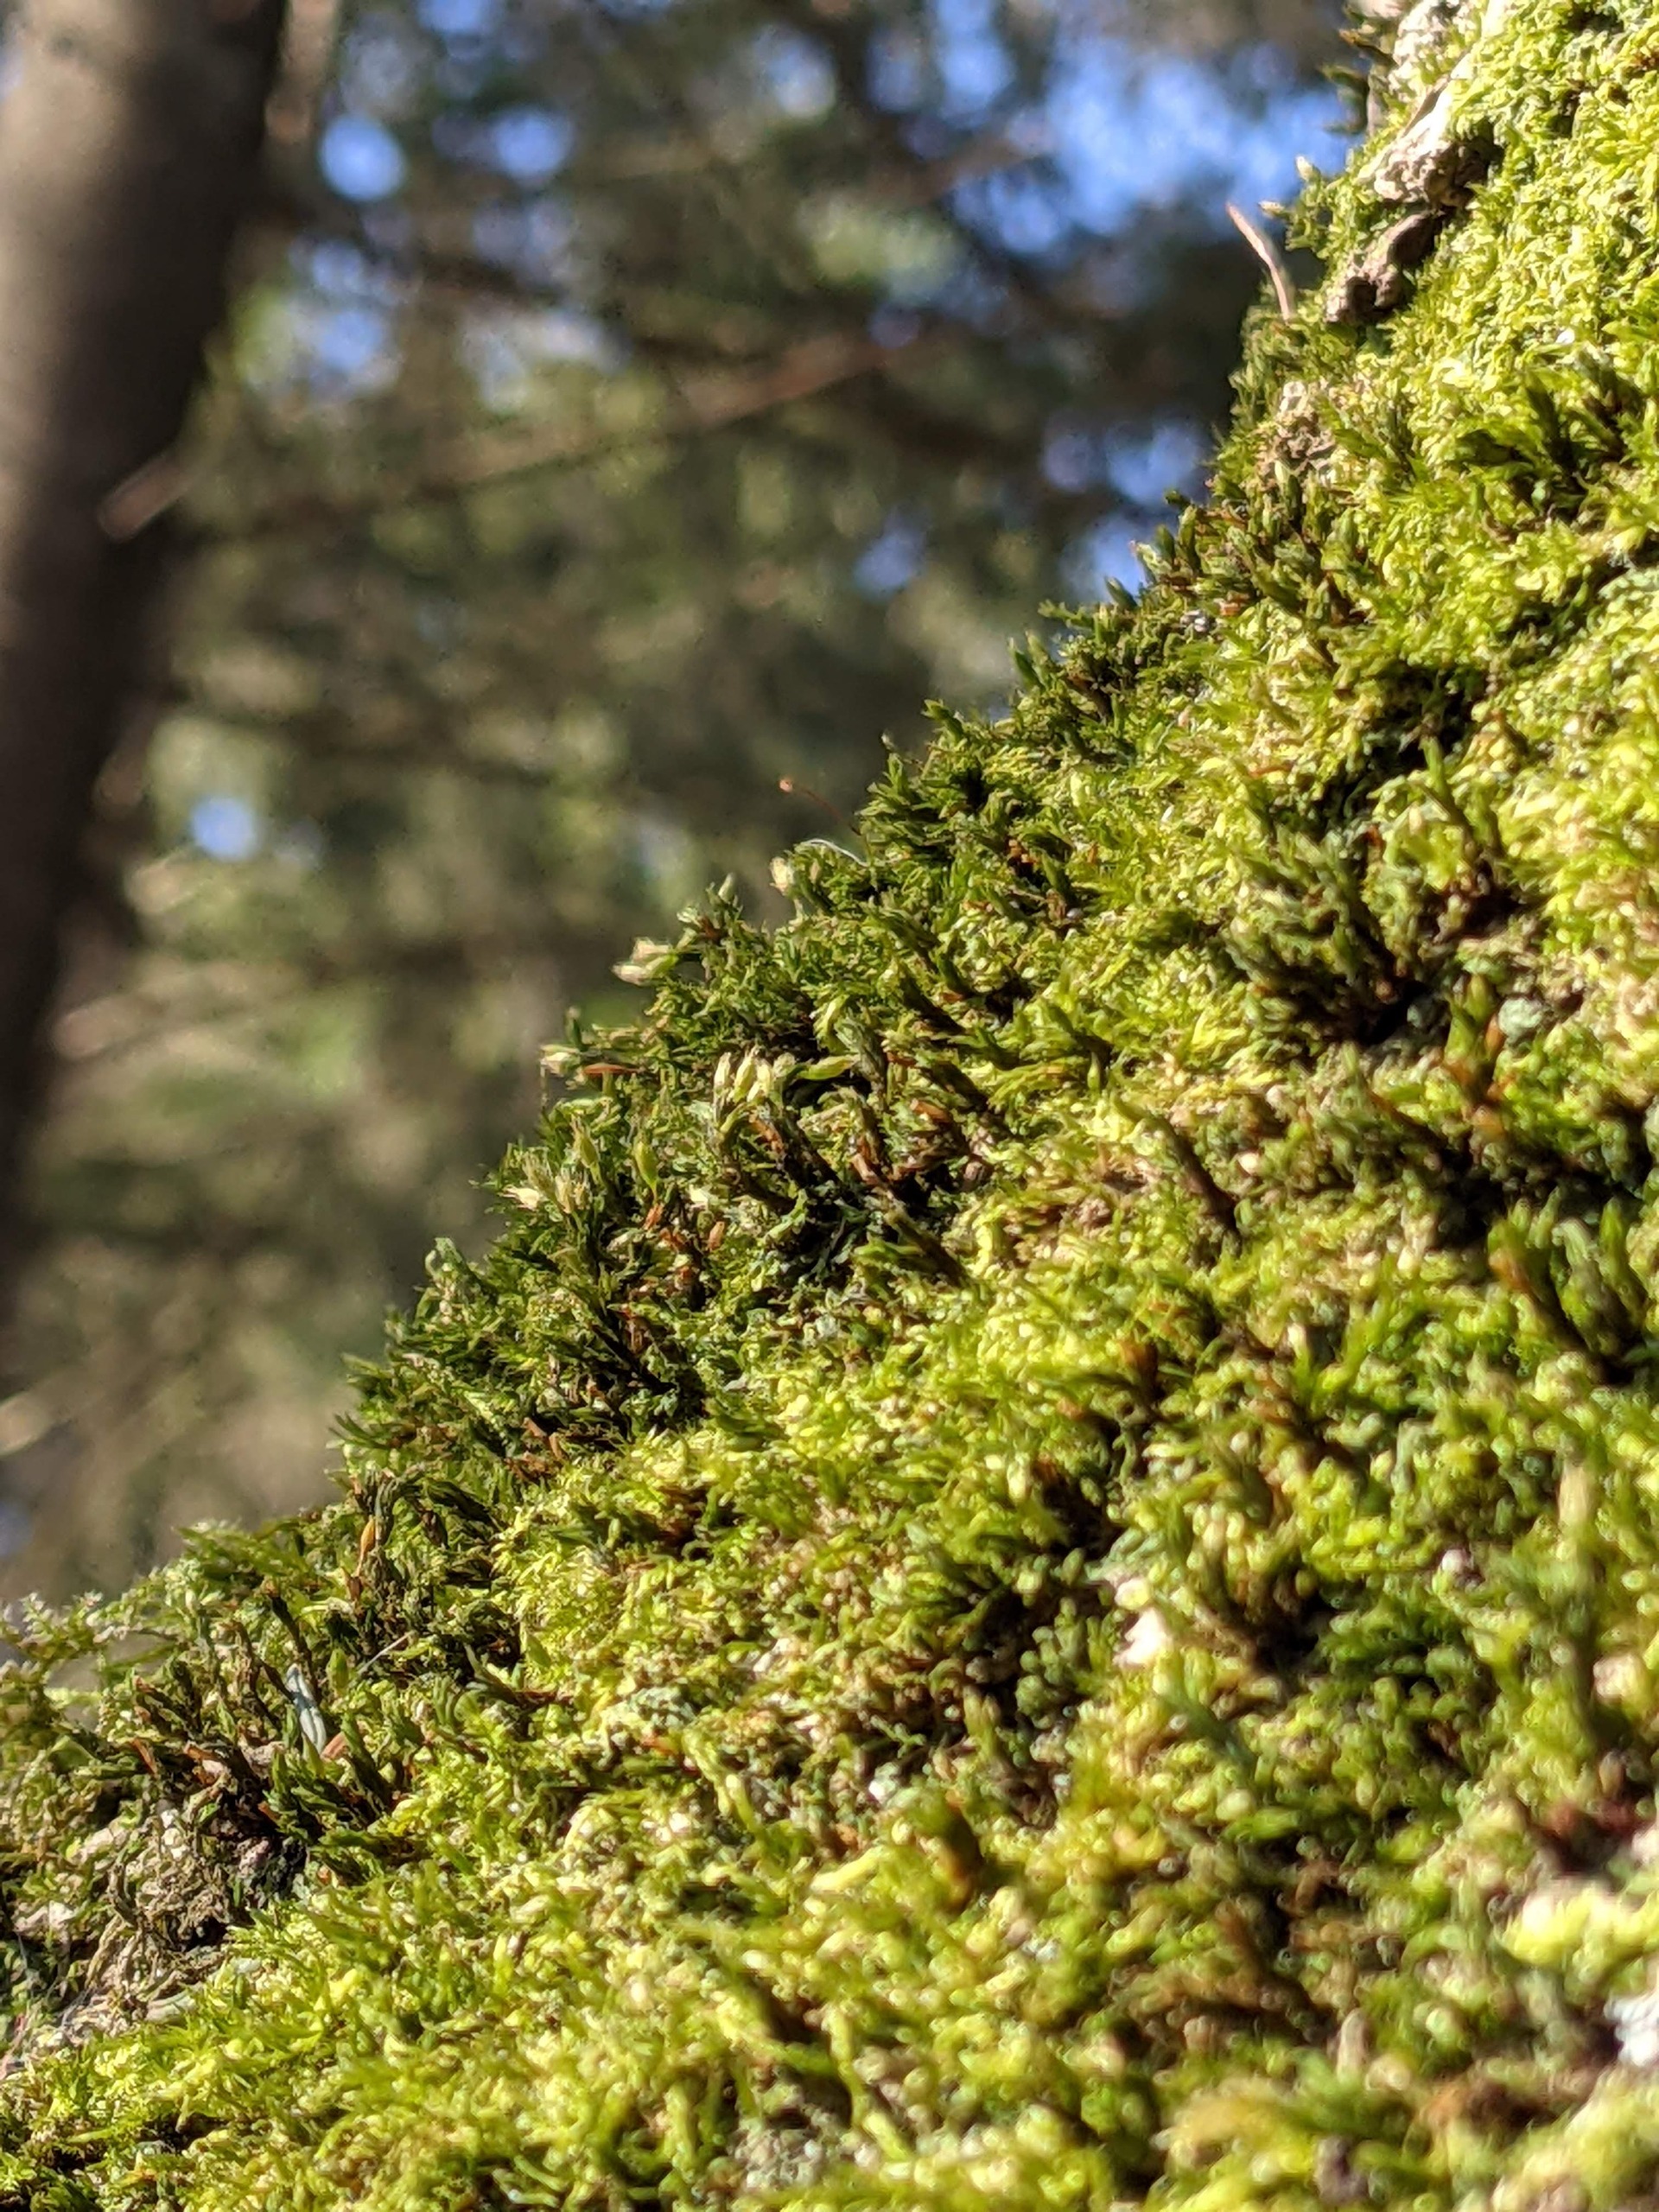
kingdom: Plantae
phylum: Bryophyta
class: Bryopsida
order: Orthotrichales
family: Orthotrichaceae
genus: Lewinskya
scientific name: Lewinskya speciosa
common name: Kortstribet furehætte
